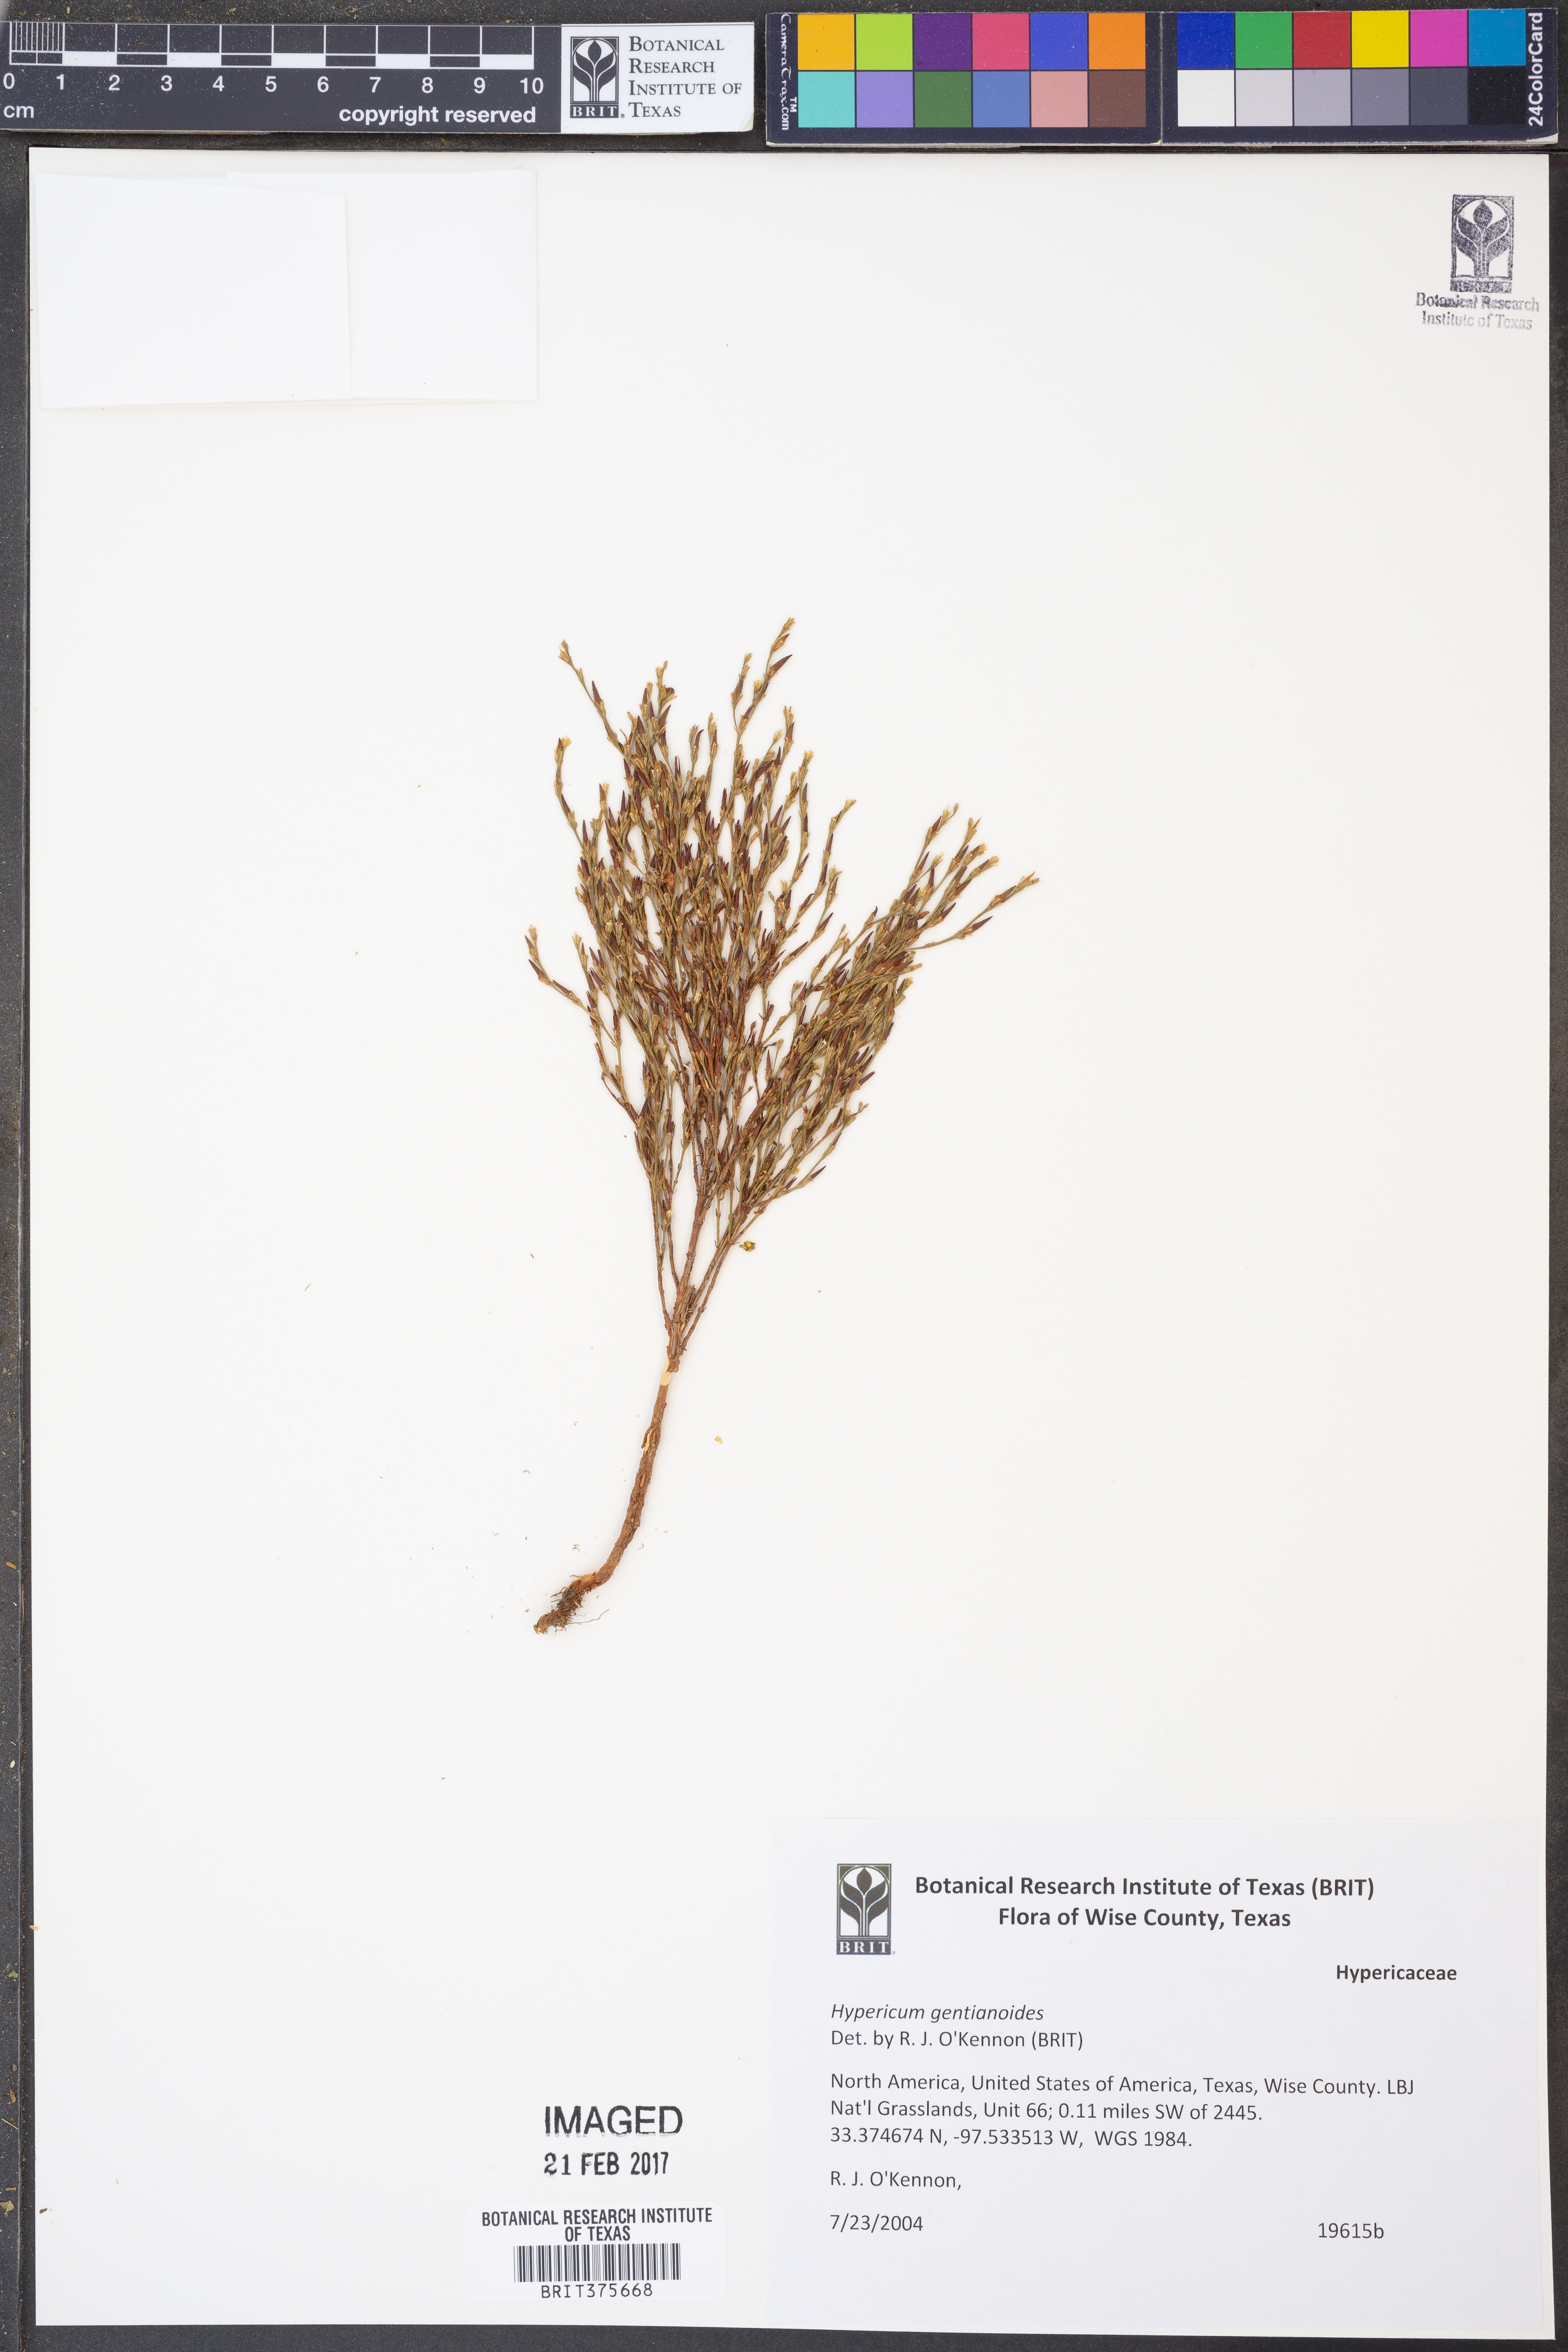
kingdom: Plantae
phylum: Tracheophyta
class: Magnoliopsida
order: Malpighiales
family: Hypericaceae
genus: Hypericum
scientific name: Hypericum gentianoides
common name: Gentian-leaved st. john's-wort
